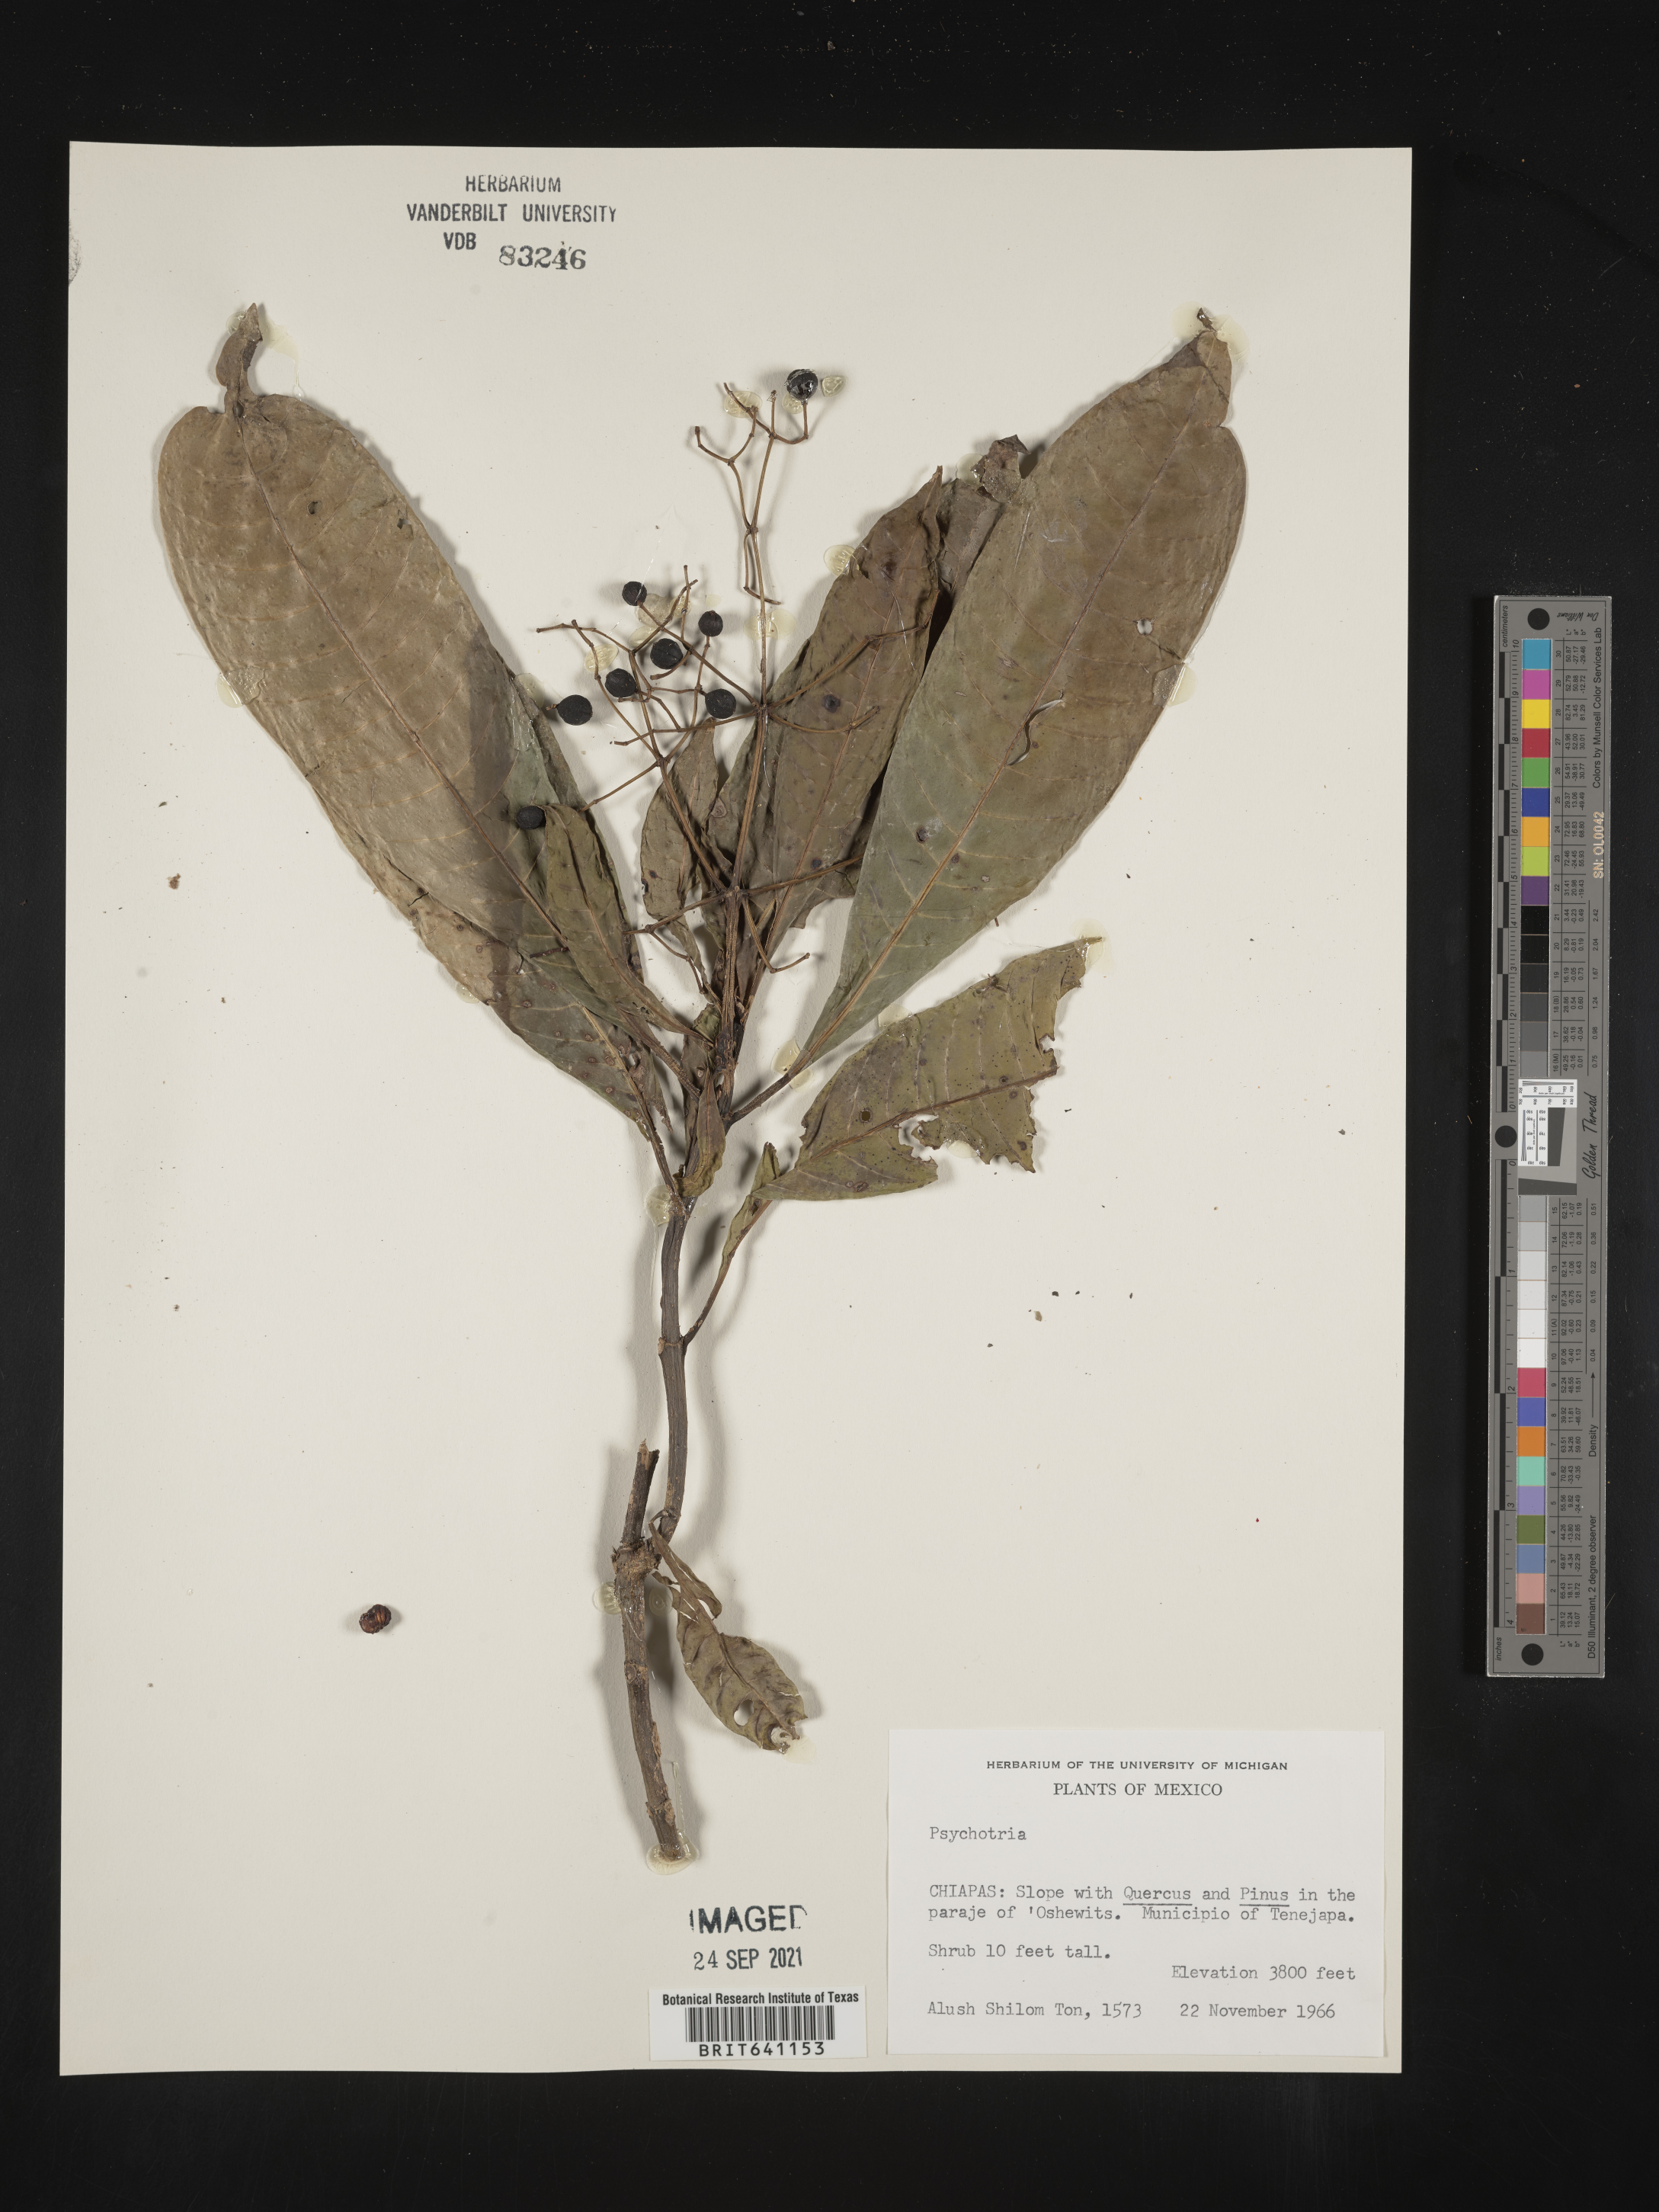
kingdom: Plantae
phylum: Tracheophyta
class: Magnoliopsida
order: Gentianales
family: Rubiaceae
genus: Psychotria
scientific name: Psychotria
